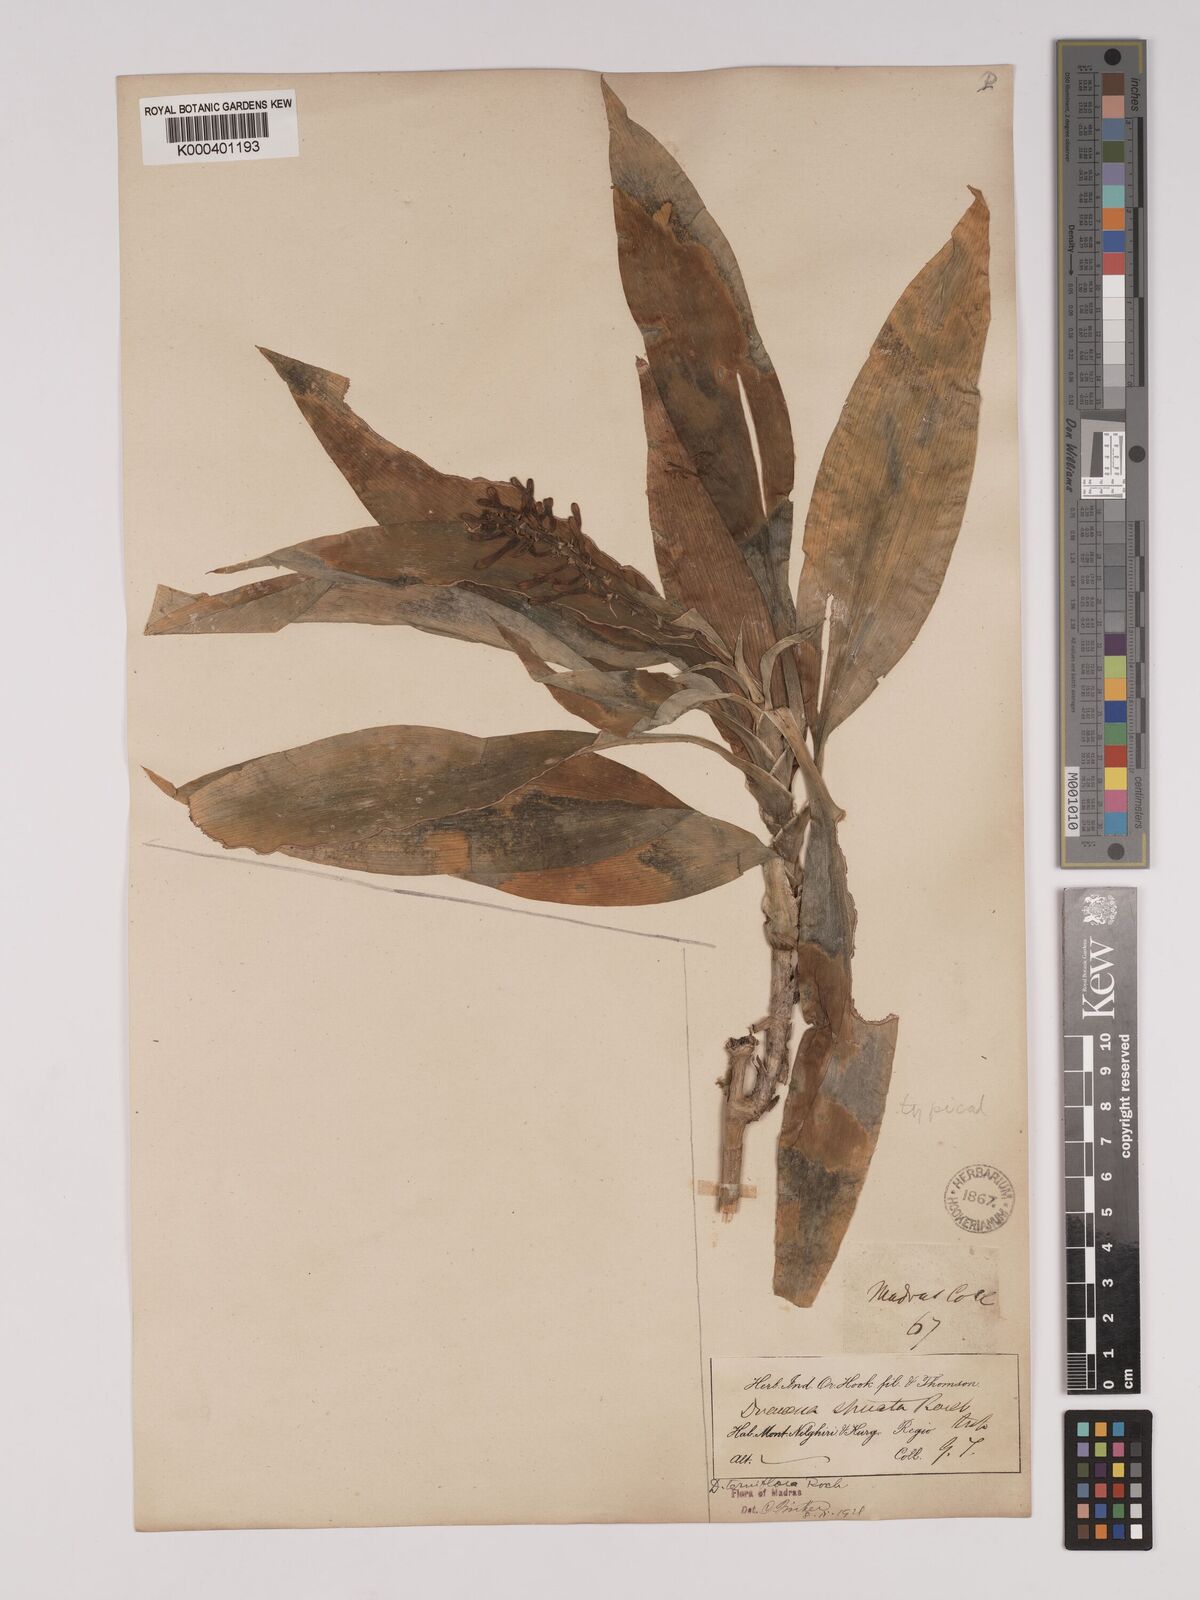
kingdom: Plantae
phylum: Tracheophyta
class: Liliopsida
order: Asparagales
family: Asparagaceae
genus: Dracaena
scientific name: Dracaena terniflora
